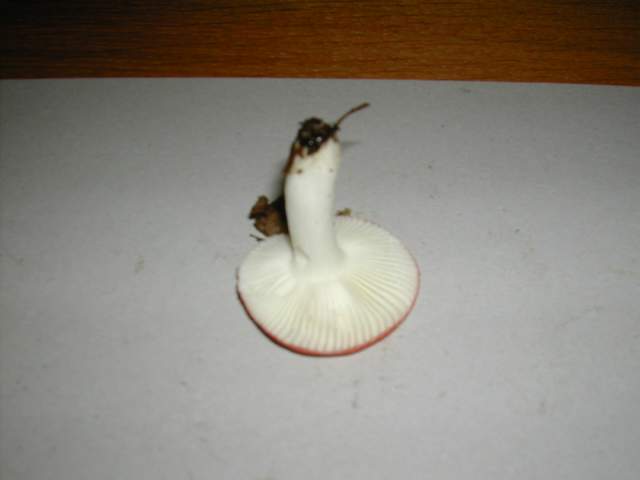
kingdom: Fungi
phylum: Basidiomycota
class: Agaricomycetes
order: Russulales
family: Russulaceae
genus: Russula
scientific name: Russula fragilis
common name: Fragile brittlegill
